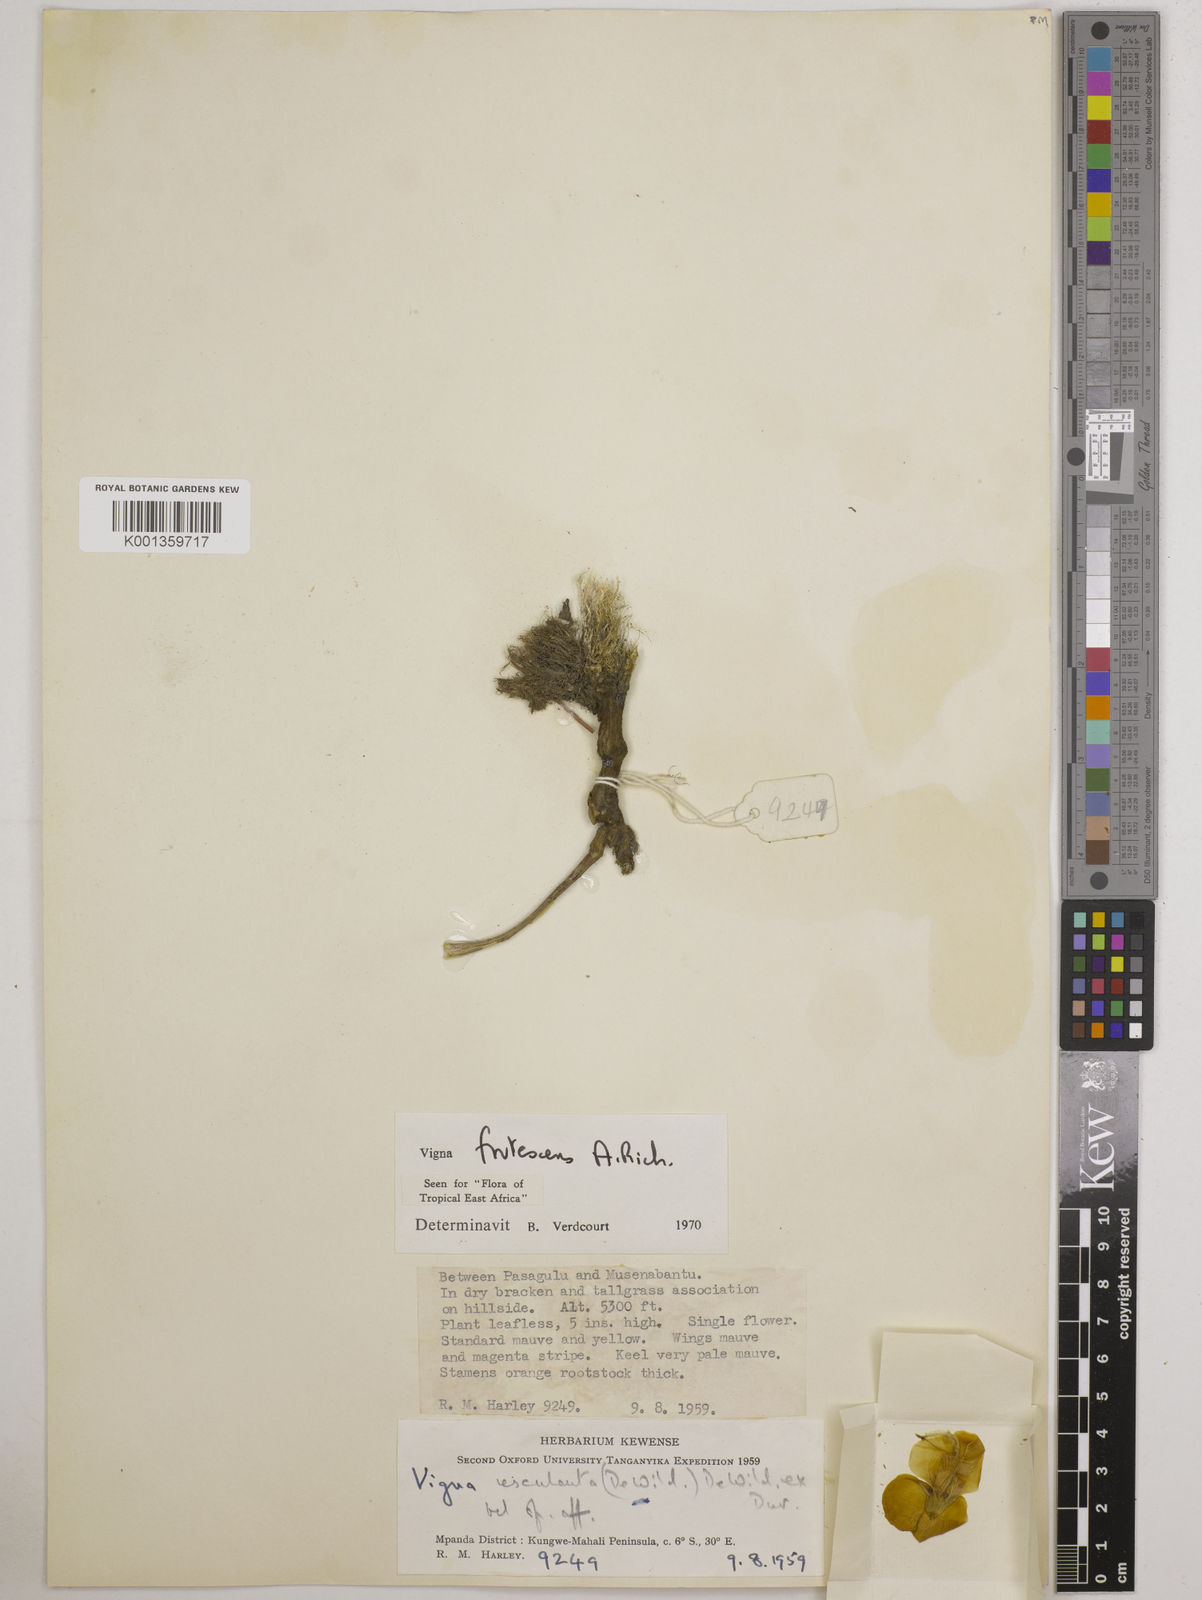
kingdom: Plantae
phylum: Tracheophyta
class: Magnoliopsida
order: Fabales
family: Fabaceae
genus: Vigna
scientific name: Vigna frutescens
